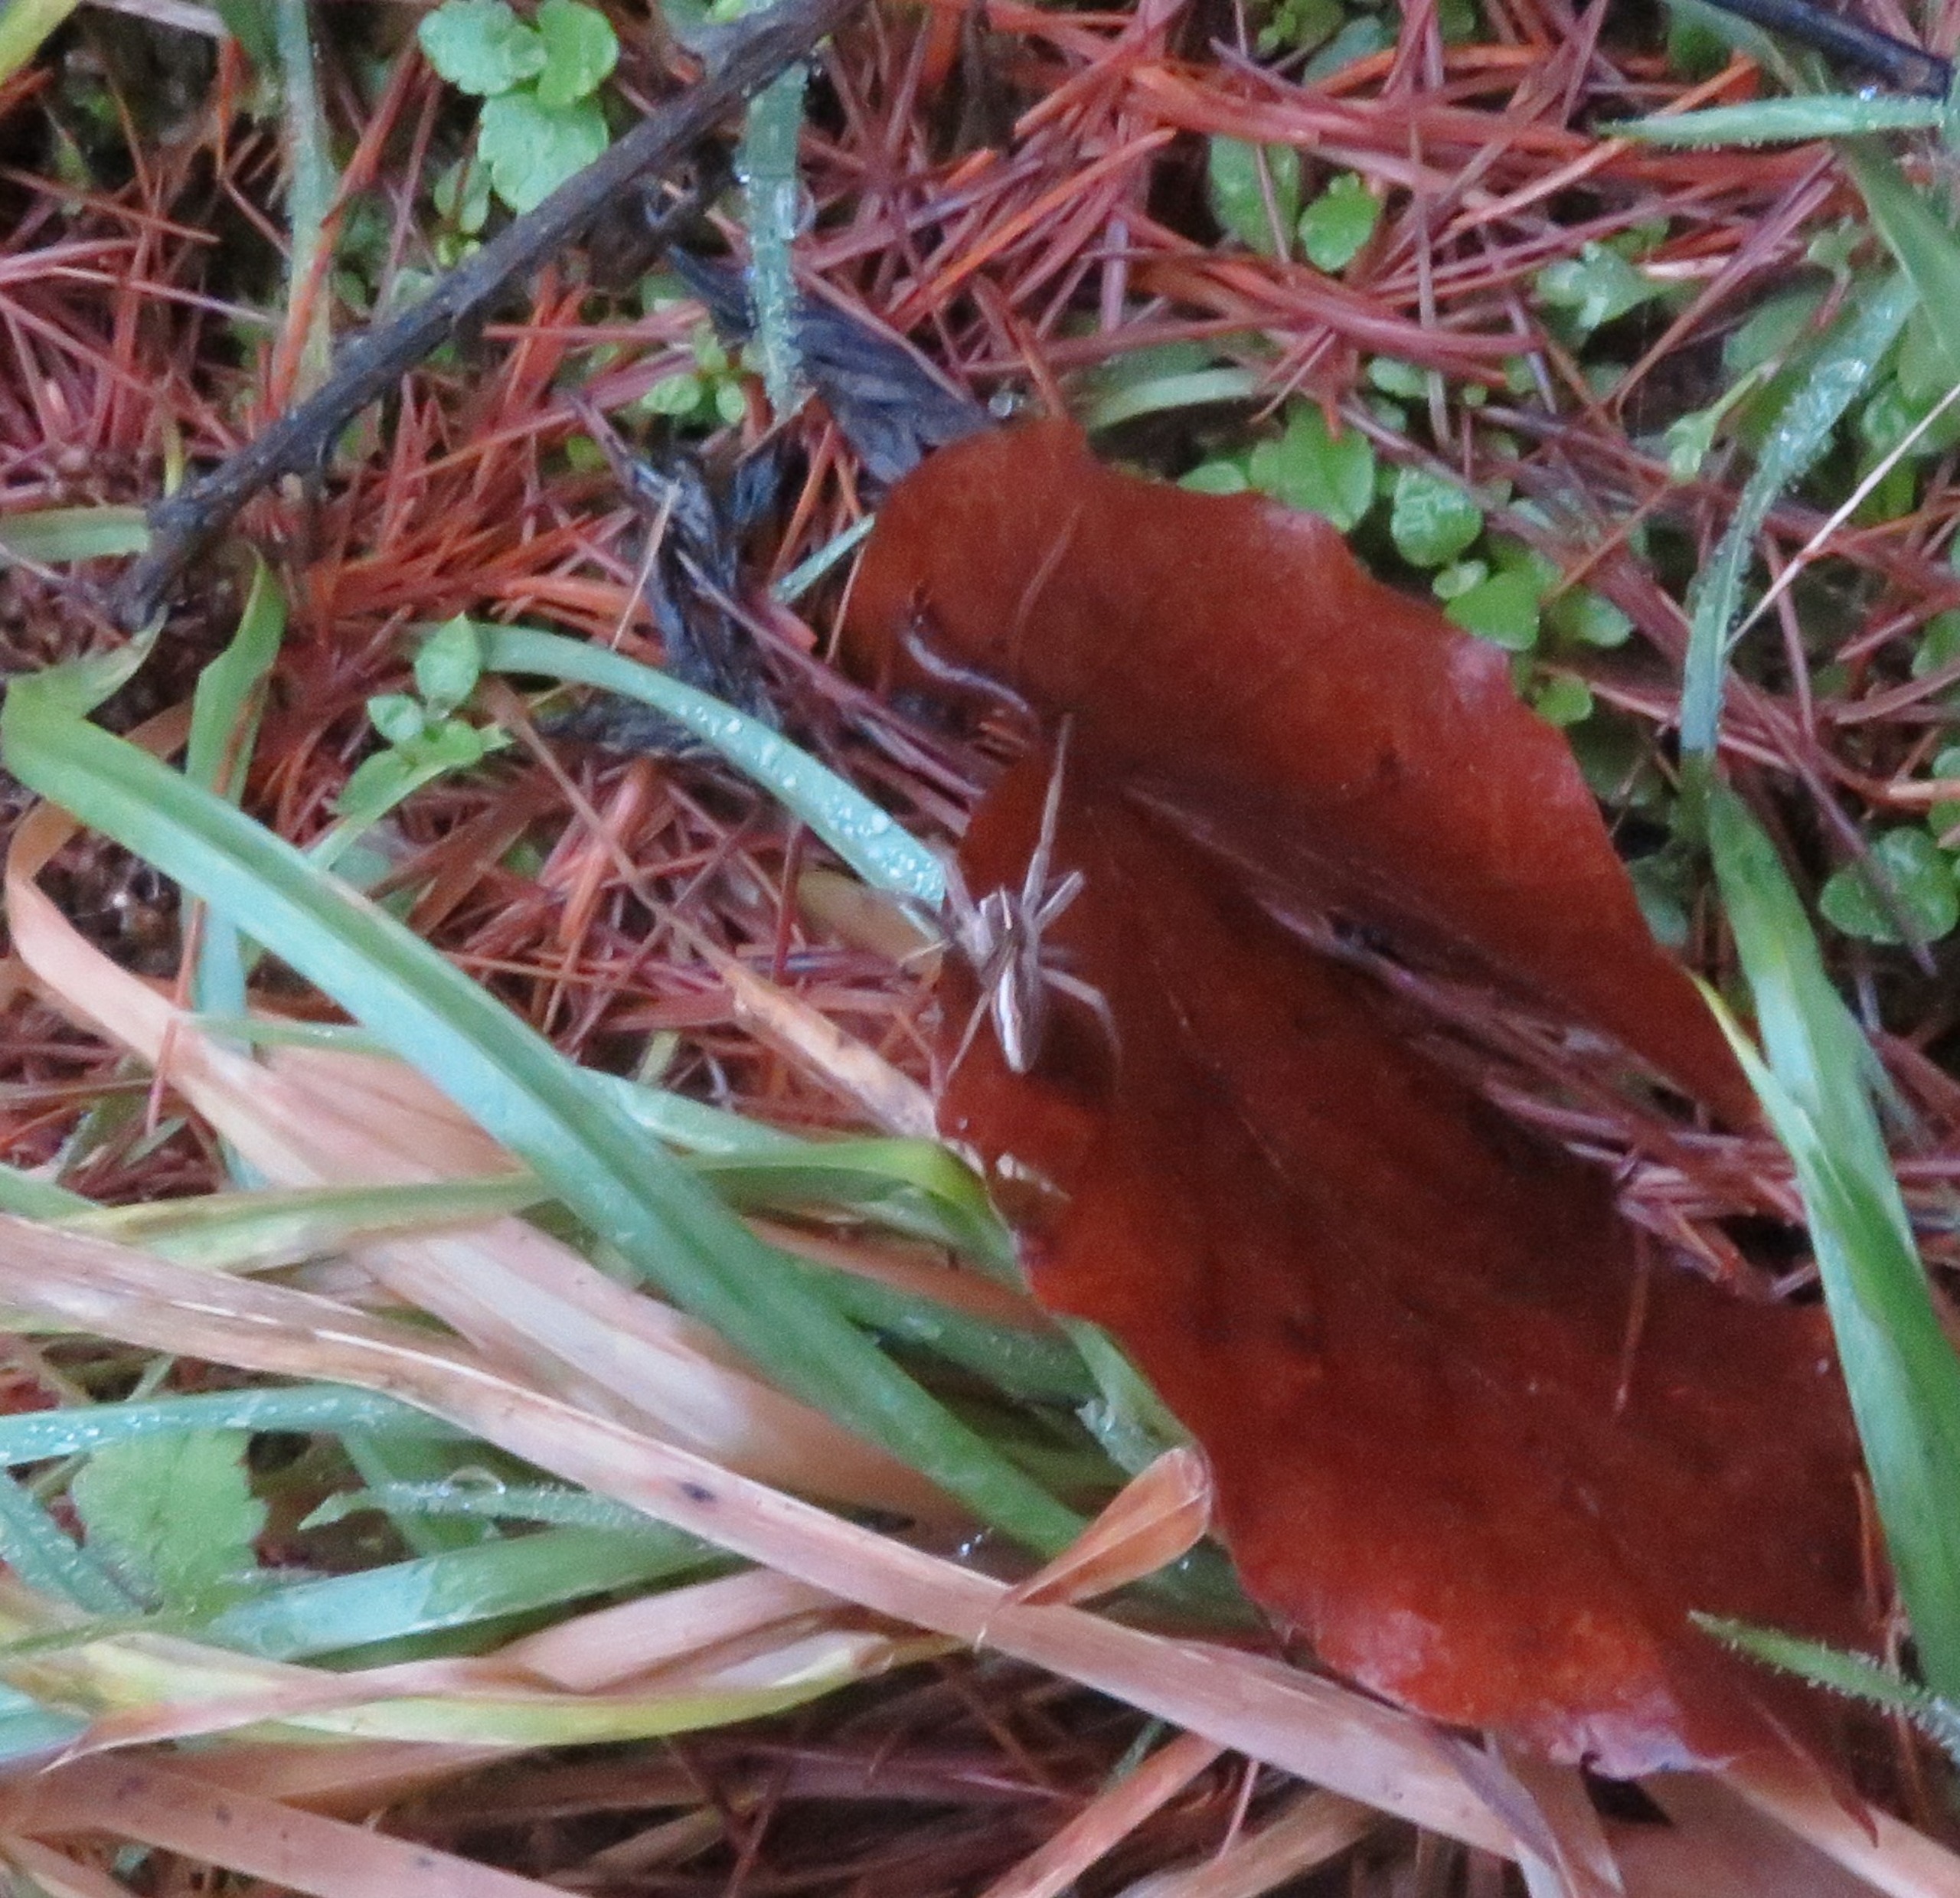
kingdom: Animalia
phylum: Arthropoda
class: Arachnida
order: Araneae
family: Pisauridae
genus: Pisaura
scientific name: Pisaura mirabilis
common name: Almindelig rovedderkop
